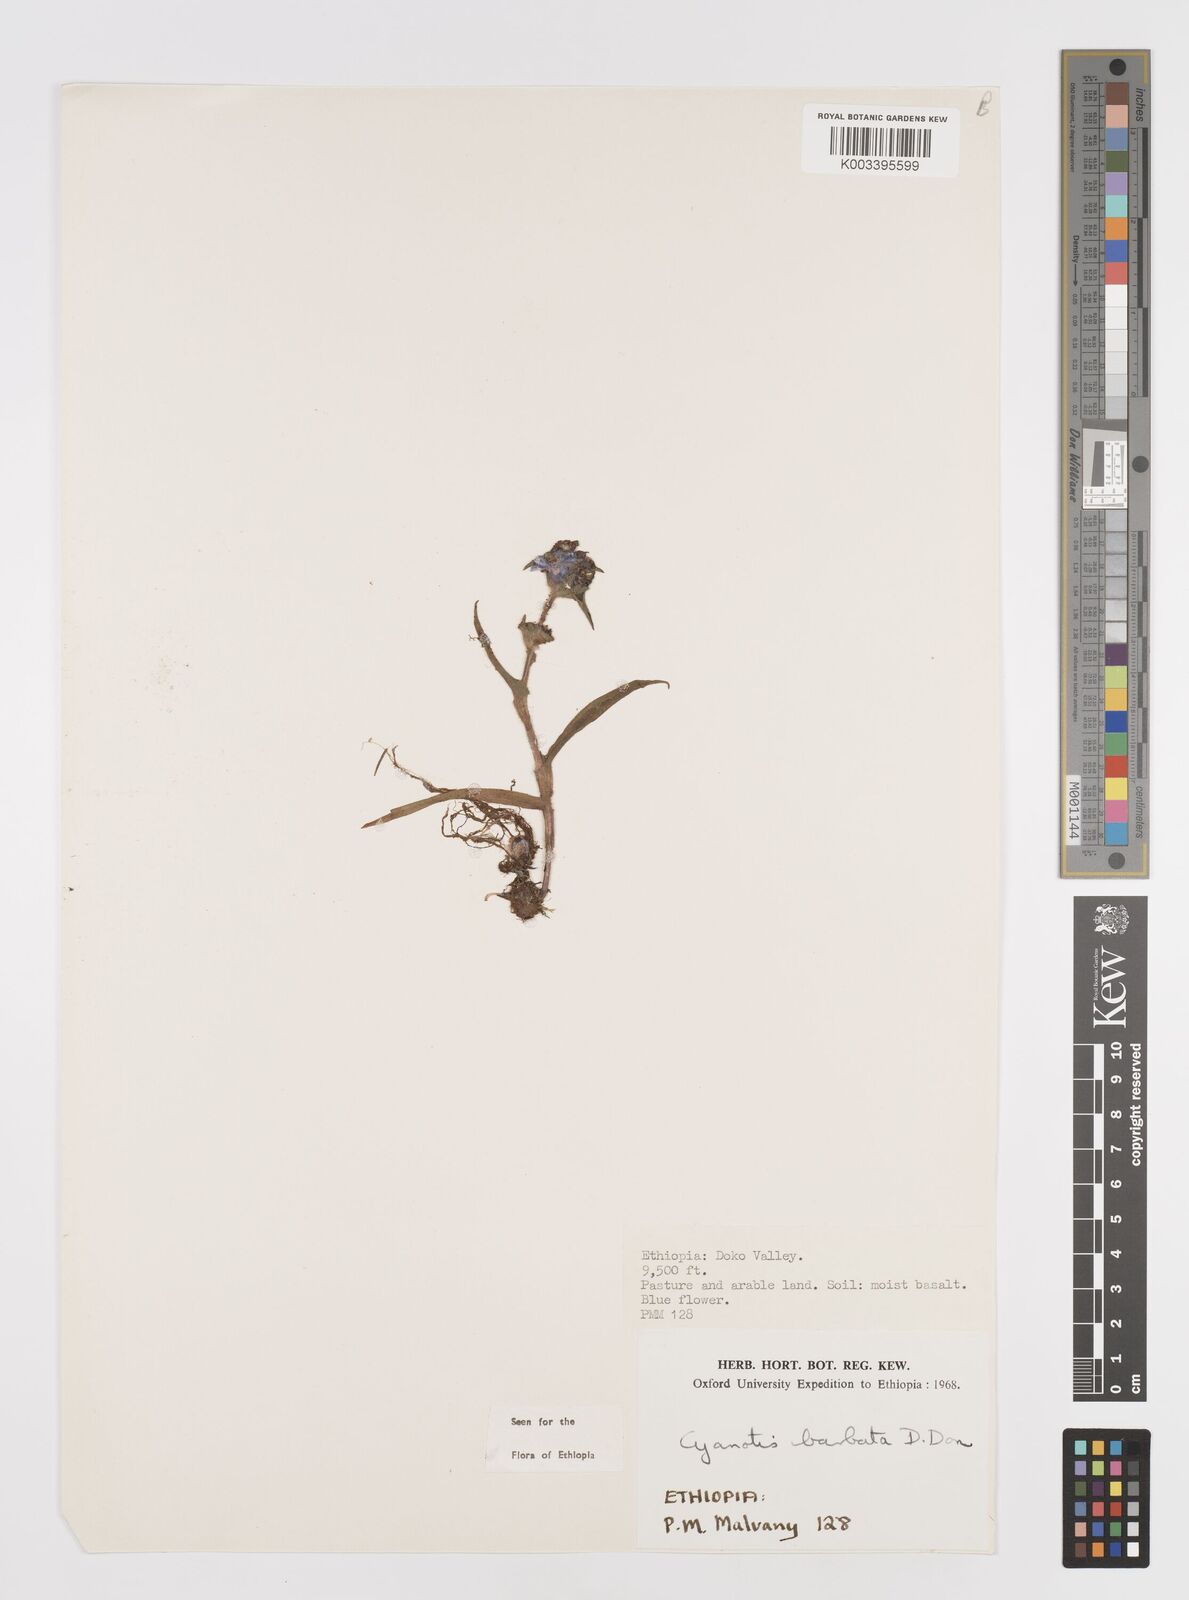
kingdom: Plantae
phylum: Tracheophyta
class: Liliopsida
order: Commelinales
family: Commelinaceae
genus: Cyanotis
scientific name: Cyanotis vaga
